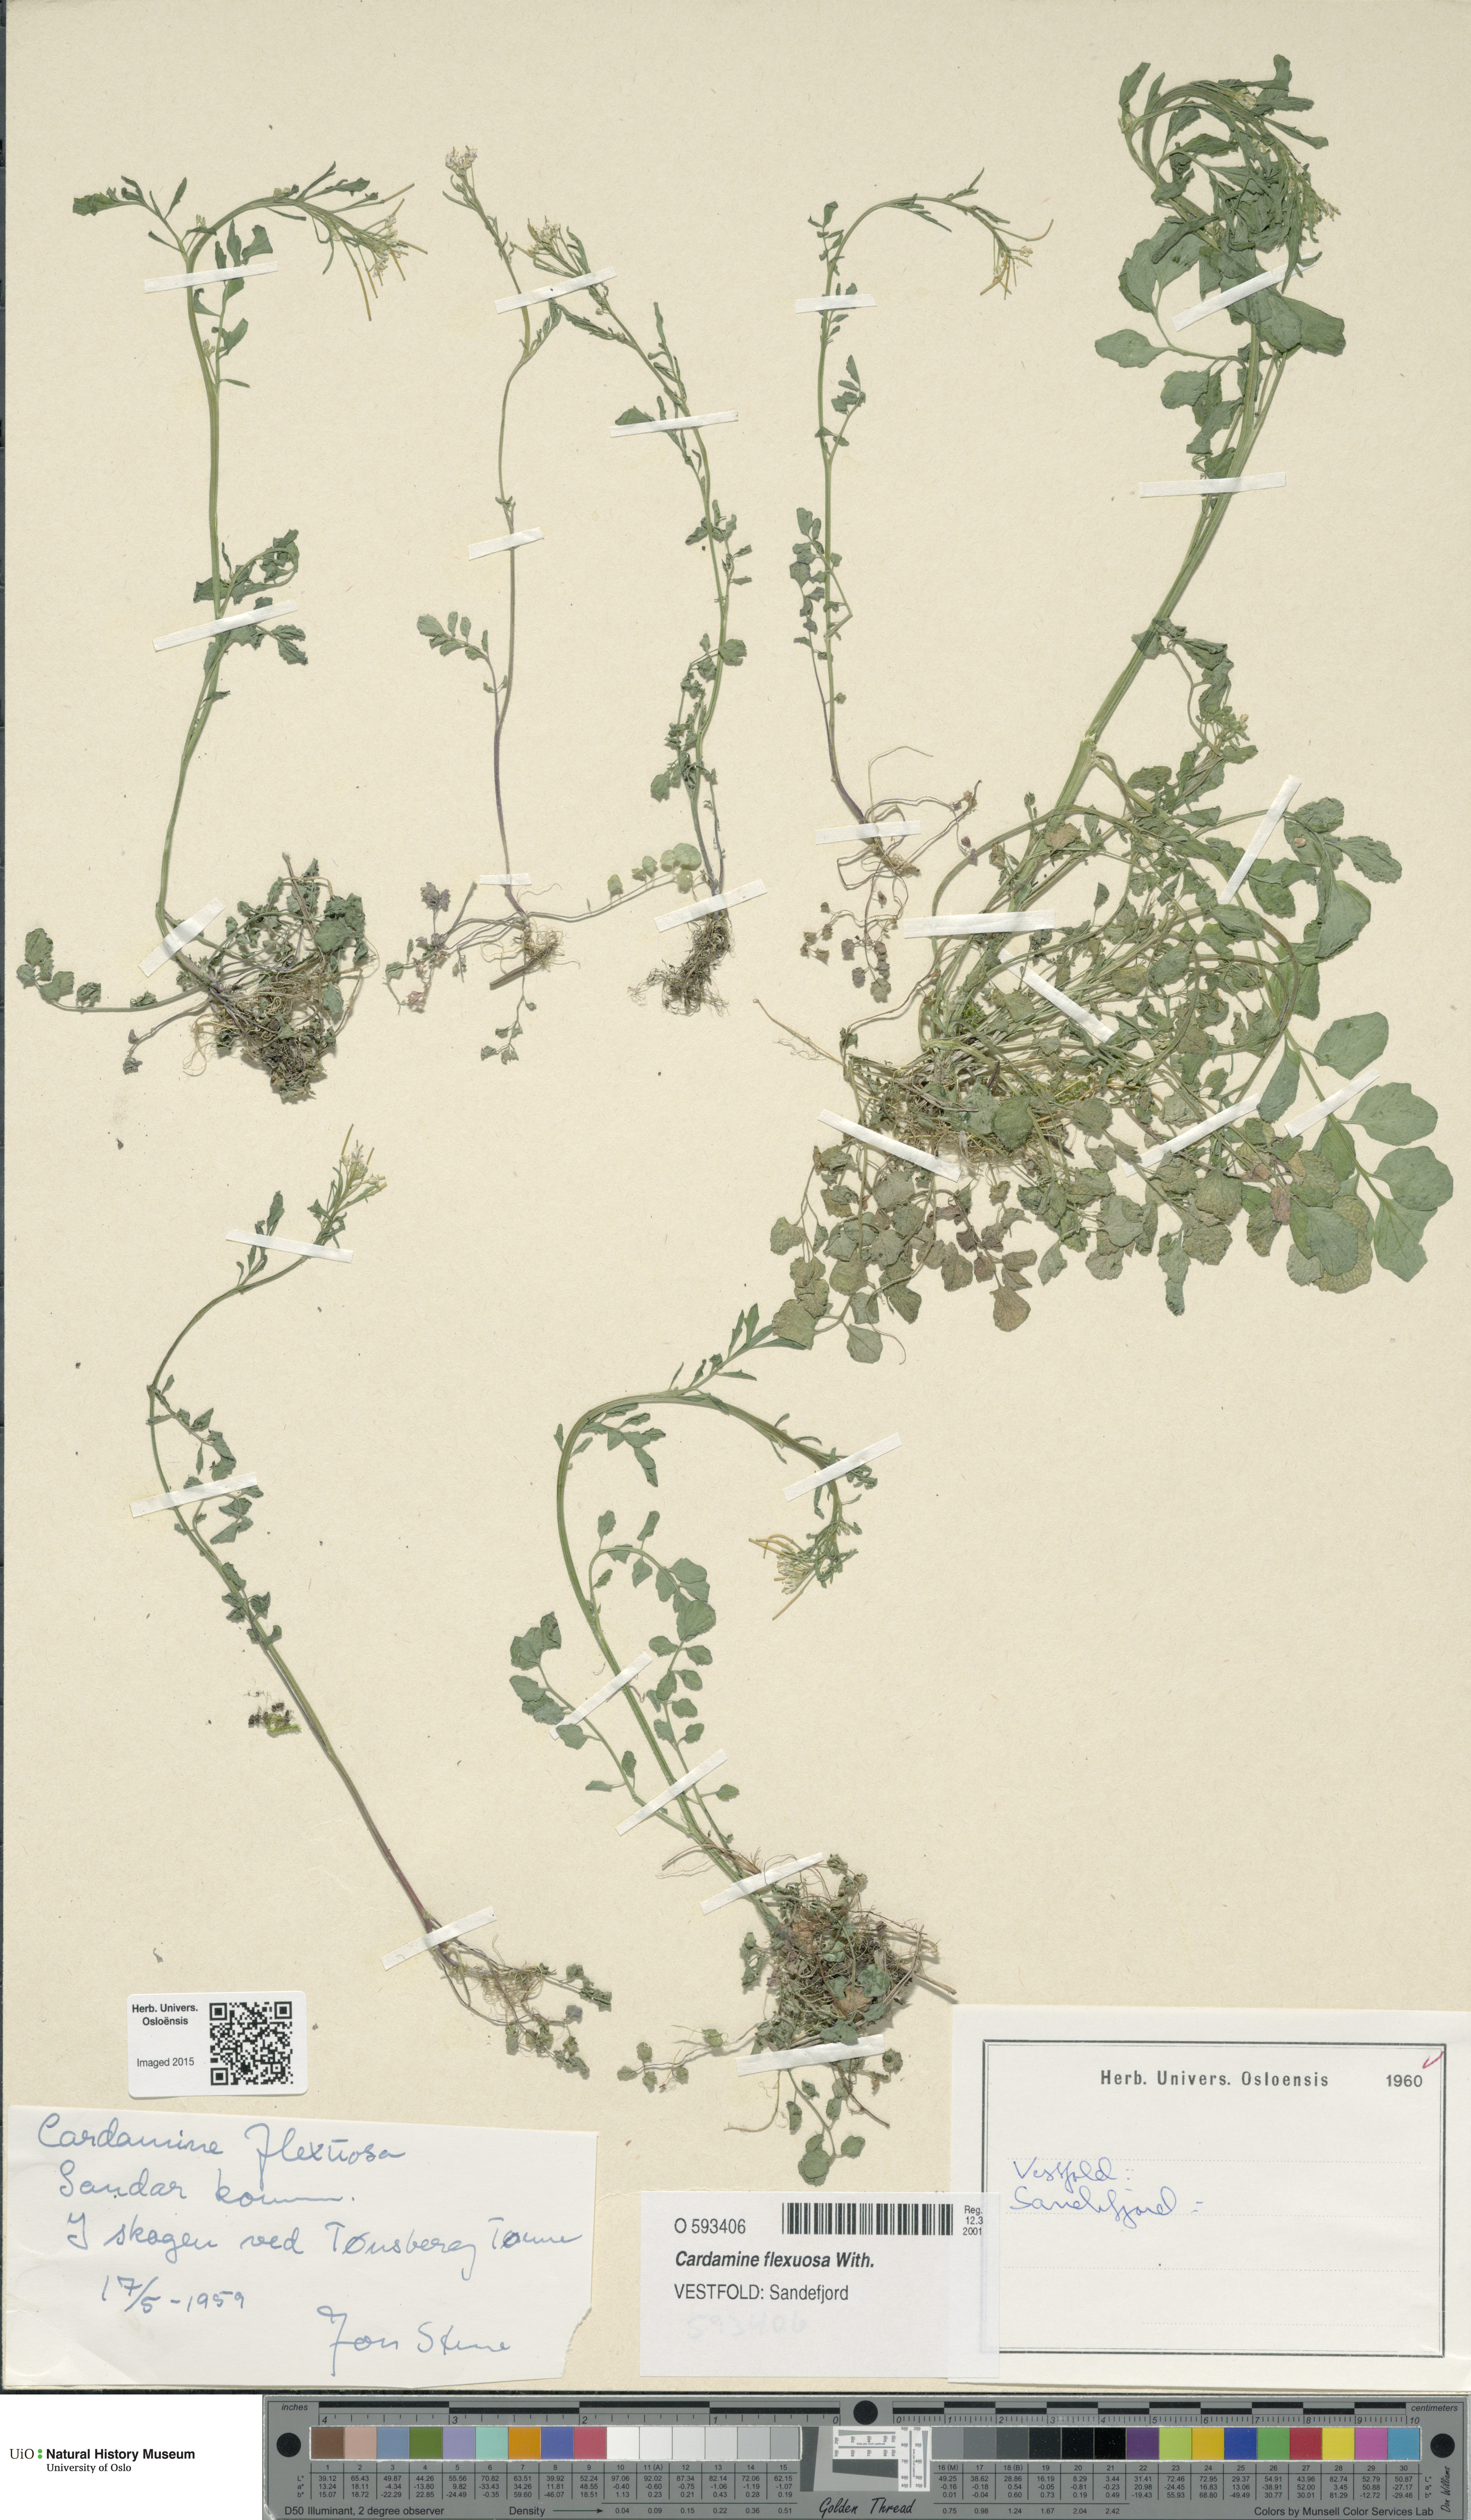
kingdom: Plantae
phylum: Tracheophyta
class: Magnoliopsida
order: Brassicales
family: Brassicaceae
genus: Cardamine
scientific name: Cardamine flexuosa
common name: Woodland bittercress
